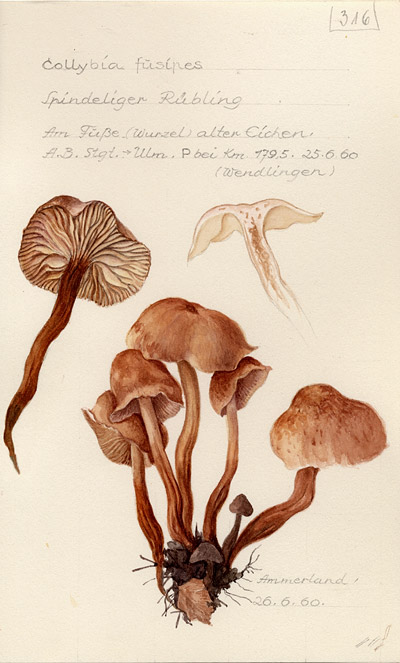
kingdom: Fungi
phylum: Basidiomycota
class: Agaricomycetes
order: Agaricales
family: Omphalotaceae
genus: Gymnopus
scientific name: Gymnopus fusipes
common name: Spindle shank
